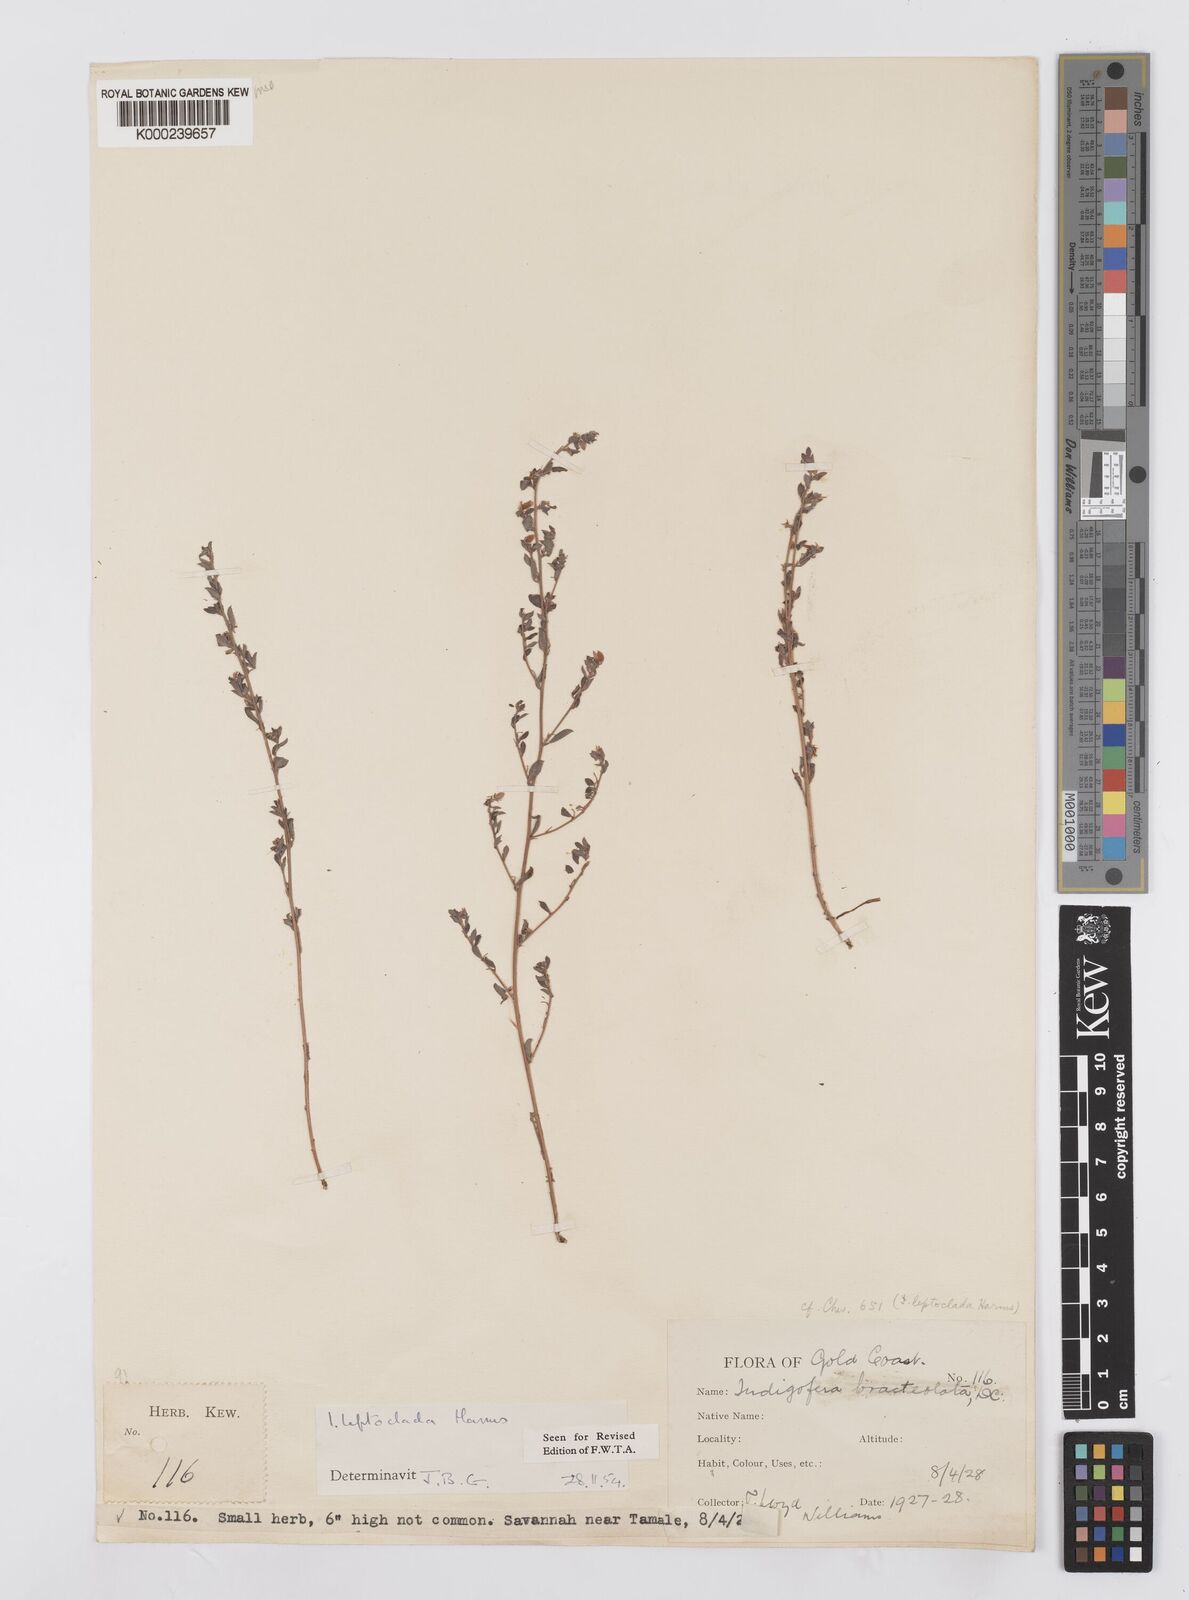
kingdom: Plantae
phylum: Tracheophyta
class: Magnoliopsida
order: Fabales
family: Fabaceae
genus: Indigofera
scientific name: Indigofera leptoclada
